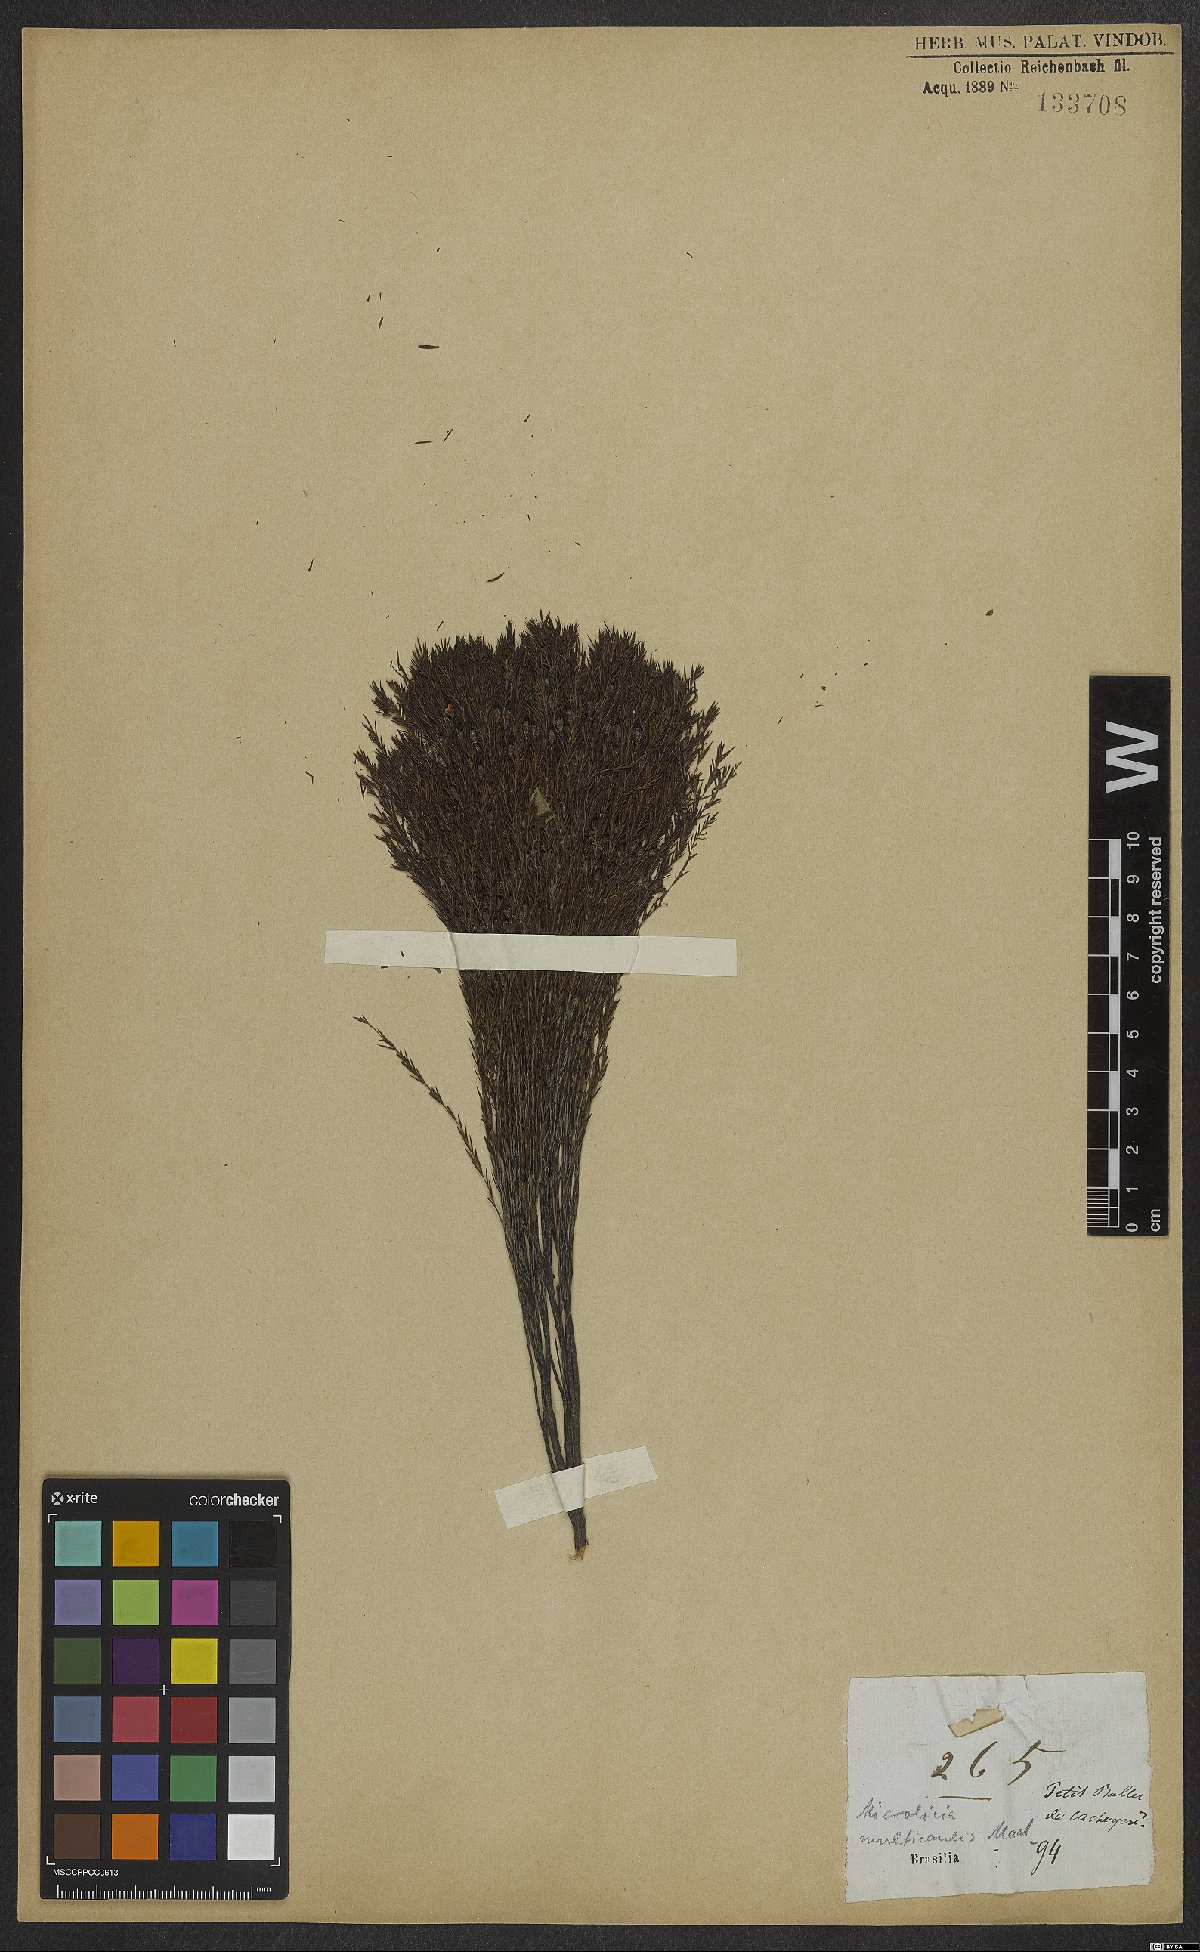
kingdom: Plantae
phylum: Tracheophyta
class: Magnoliopsida
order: Myrtales
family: Melastomataceae
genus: Microlicia
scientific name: Microlicia multicaulis
